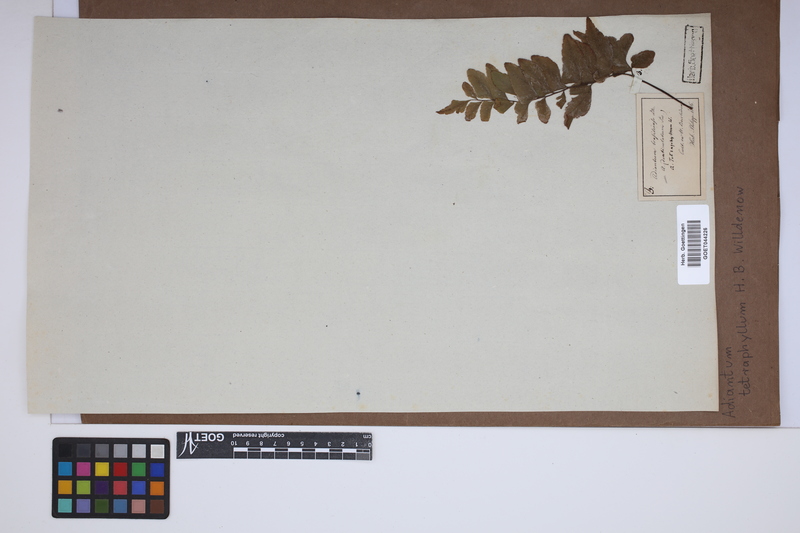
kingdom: Plantae
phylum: Tracheophyta
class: Polypodiopsida
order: Polypodiales
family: Pteridaceae
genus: Adiantum
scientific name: Adiantum tetraphyllum
